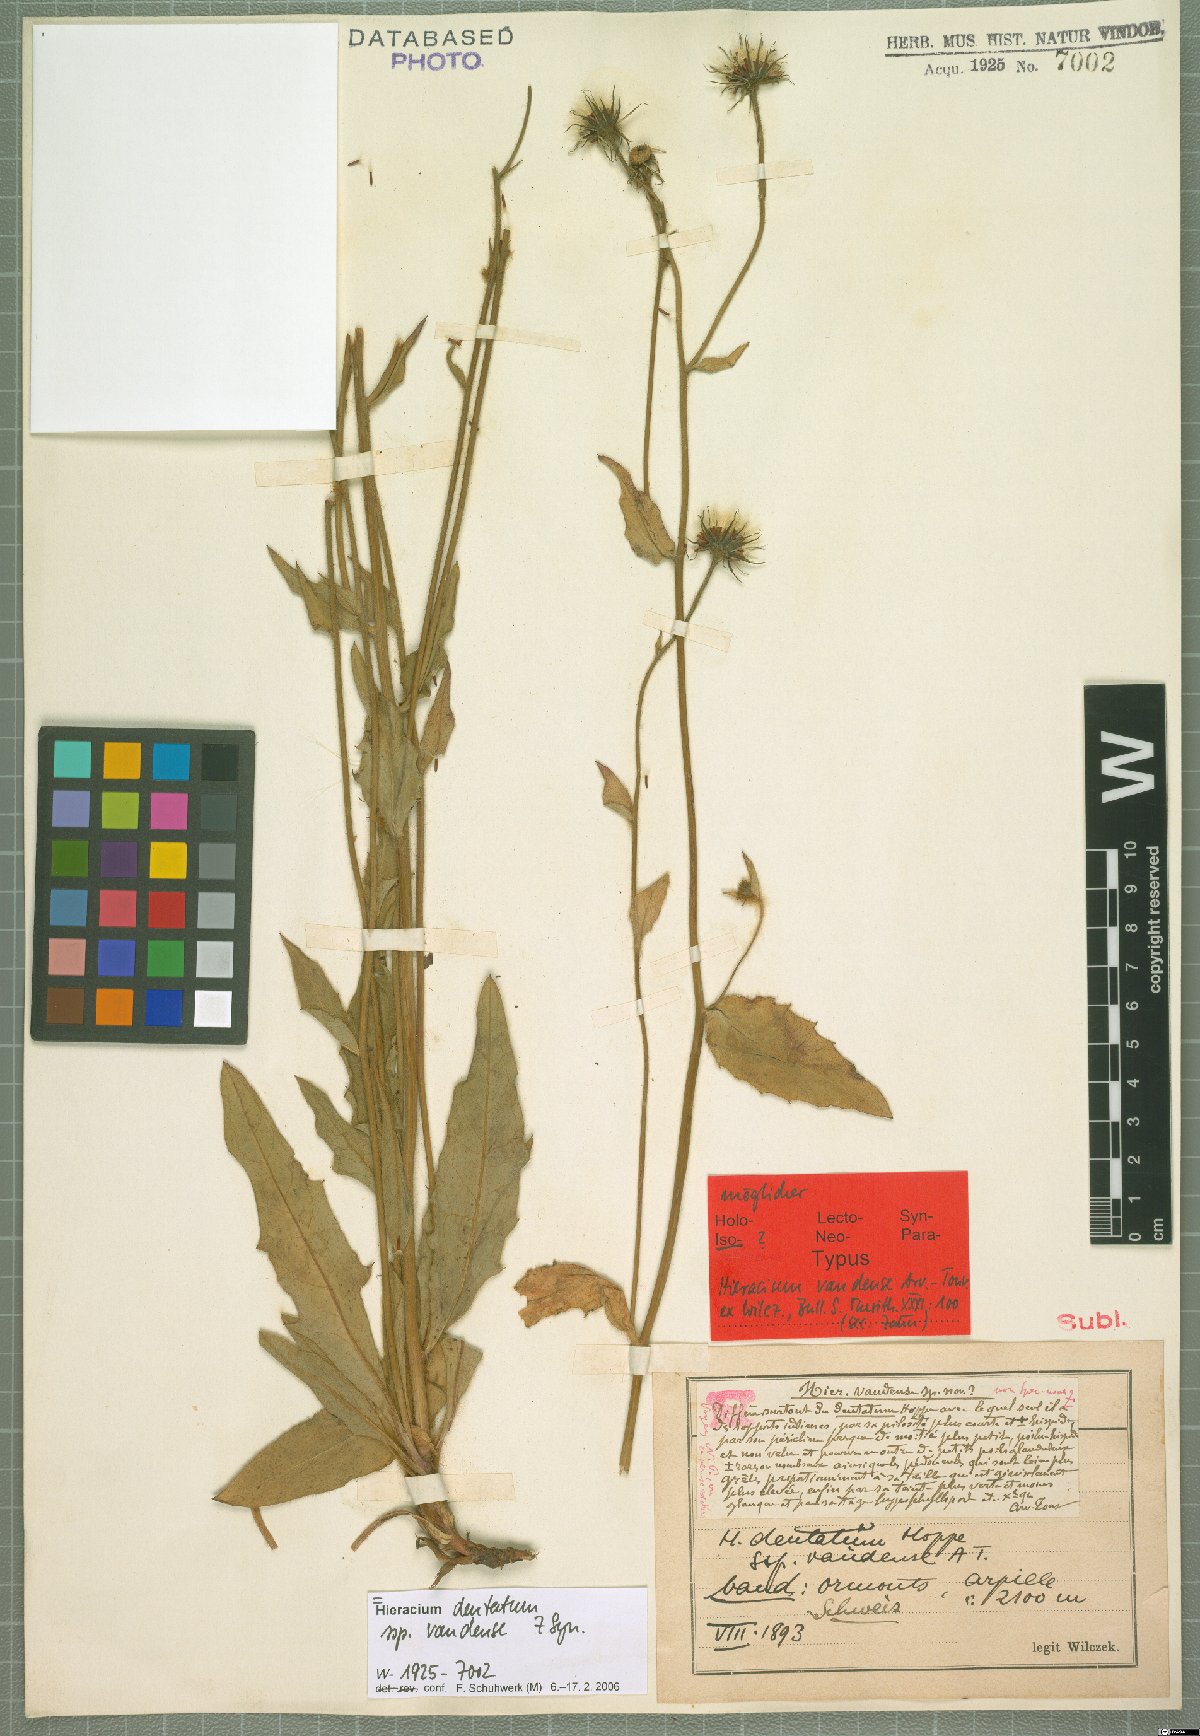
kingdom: Plantae
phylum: Tracheophyta
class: Magnoliopsida
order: Asterales
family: Asteraceae
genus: Hieracium
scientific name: Hieracium dentatum
